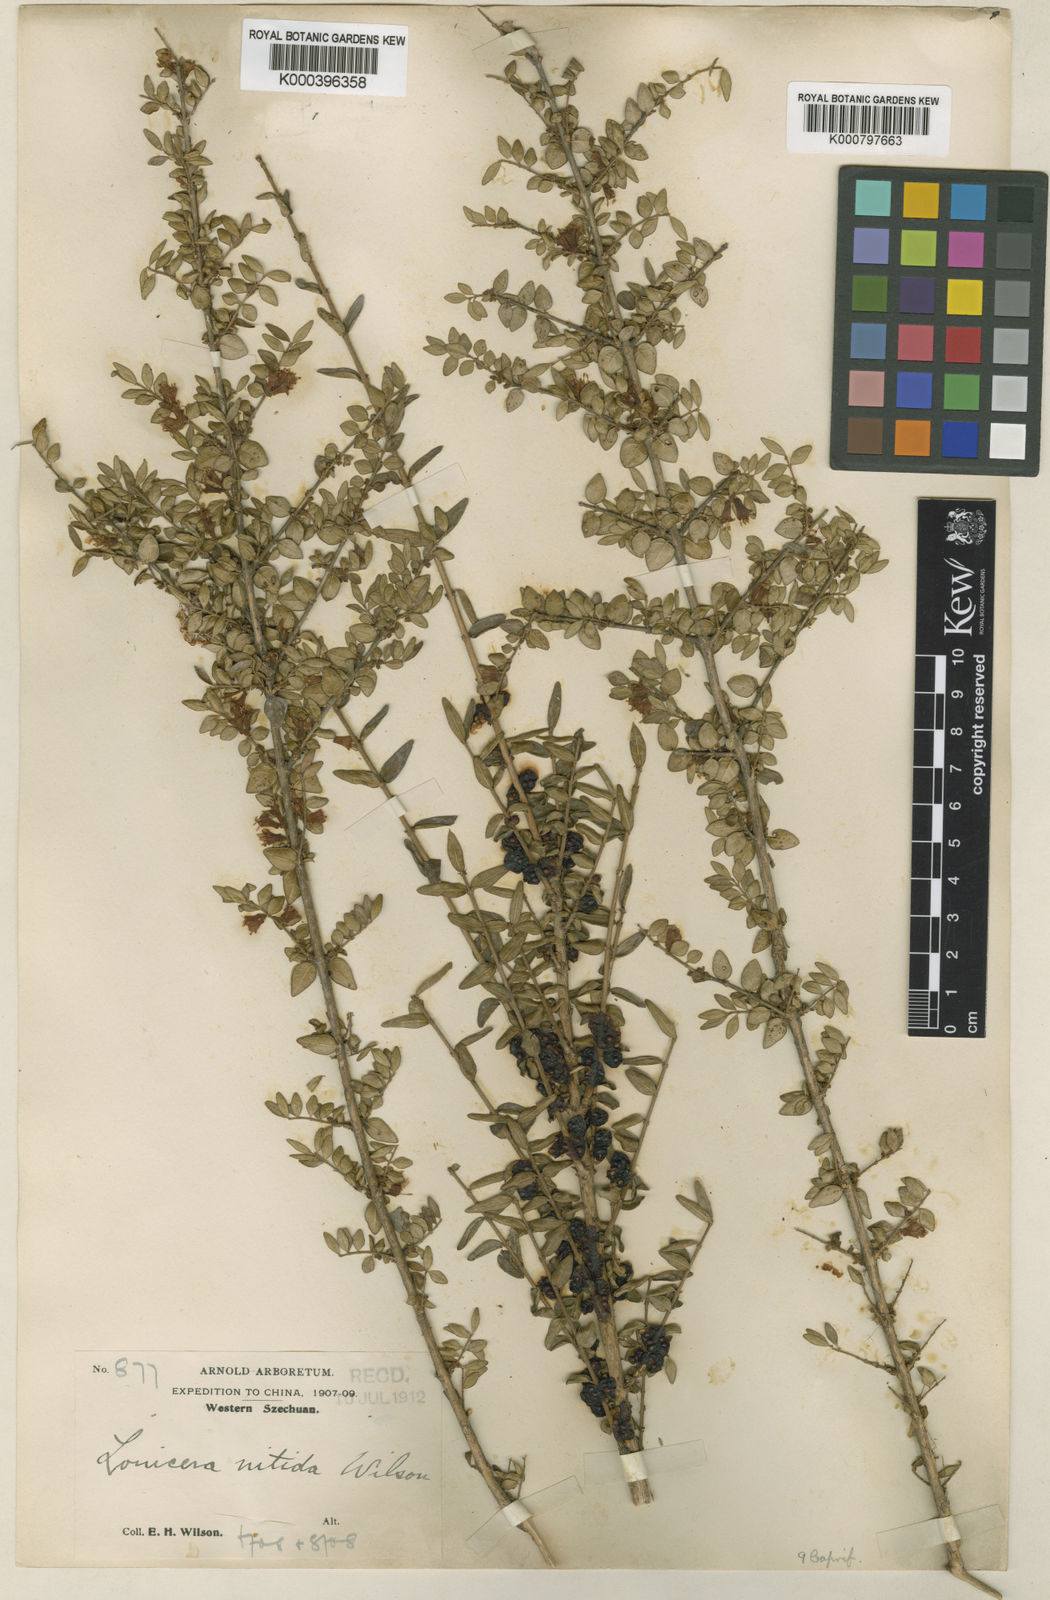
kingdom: Plantae
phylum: Tracheophyta
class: Magnoliopsida
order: Dipsacales
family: Caprifoliaceae
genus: Lonicera
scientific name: Lonicera pileata
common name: Box-leaved honeysuckle
